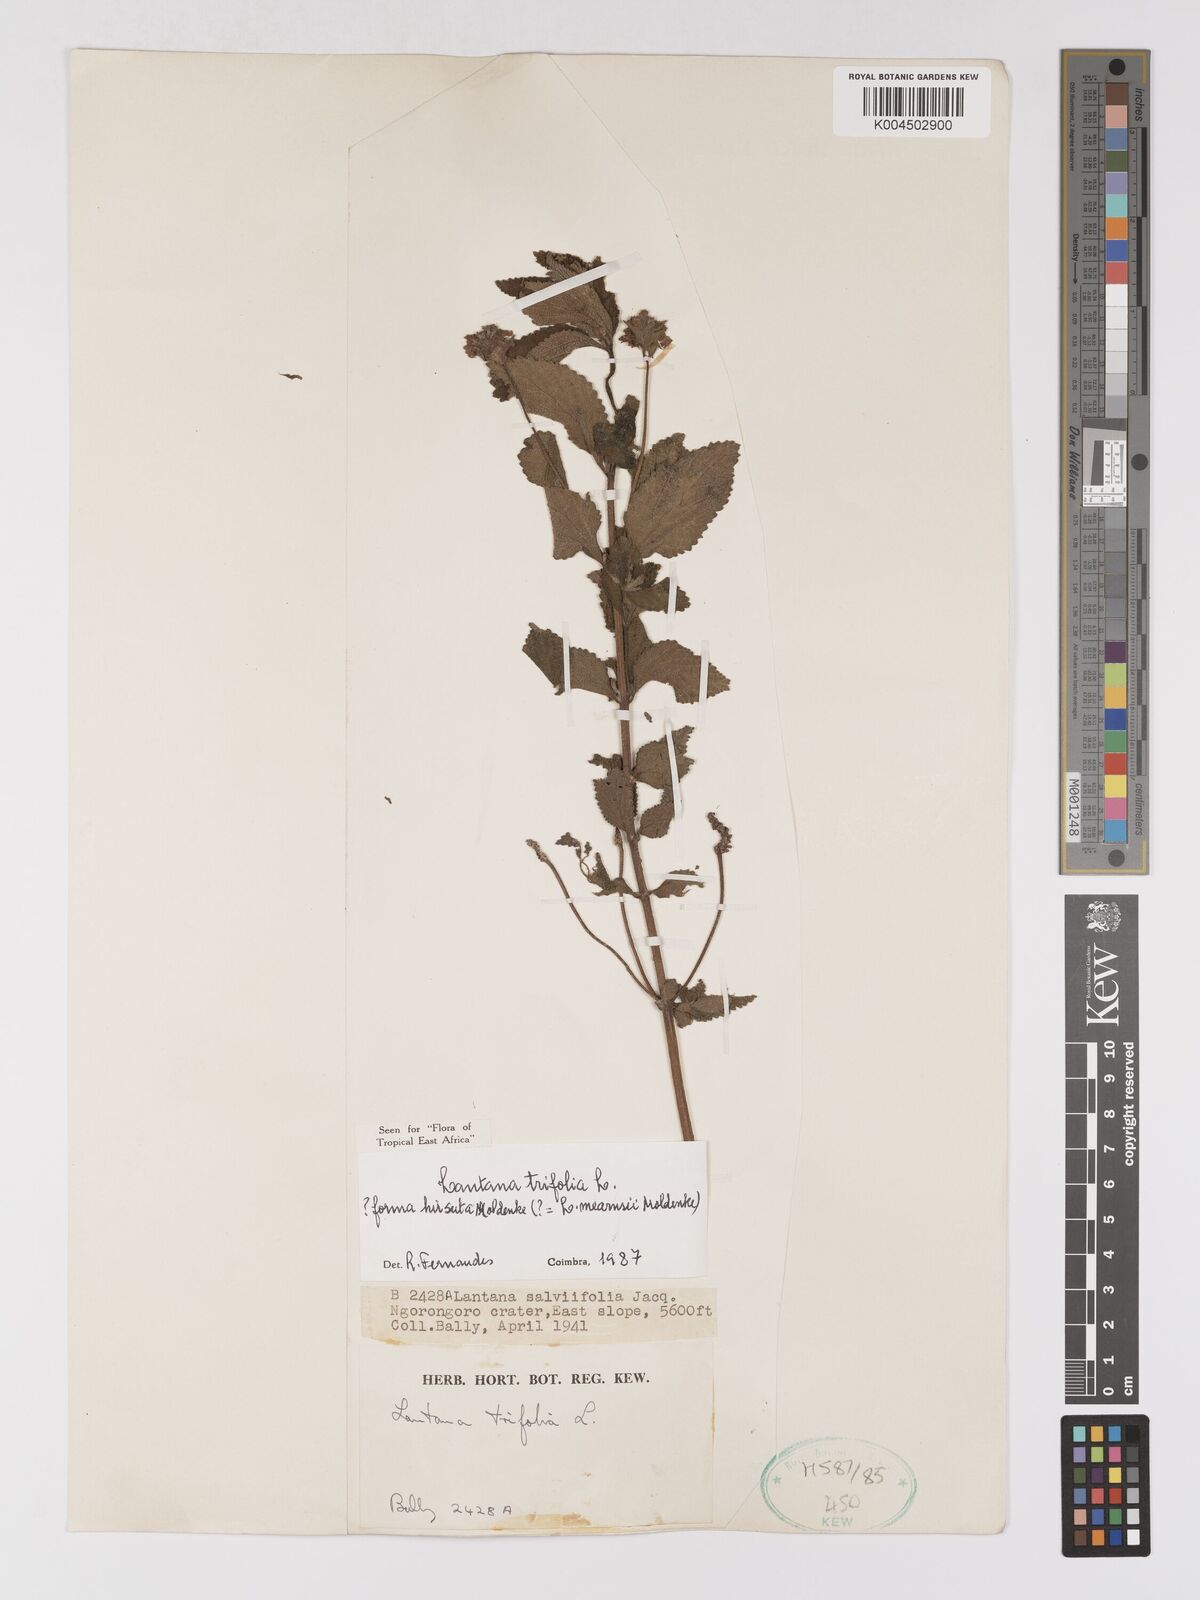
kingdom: Plantae
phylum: Tracheophyta
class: Magnoliopsida
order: Lamiales
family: Verbenaceae
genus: Lantana
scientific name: Lantana trifolia
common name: Sweet-sage
